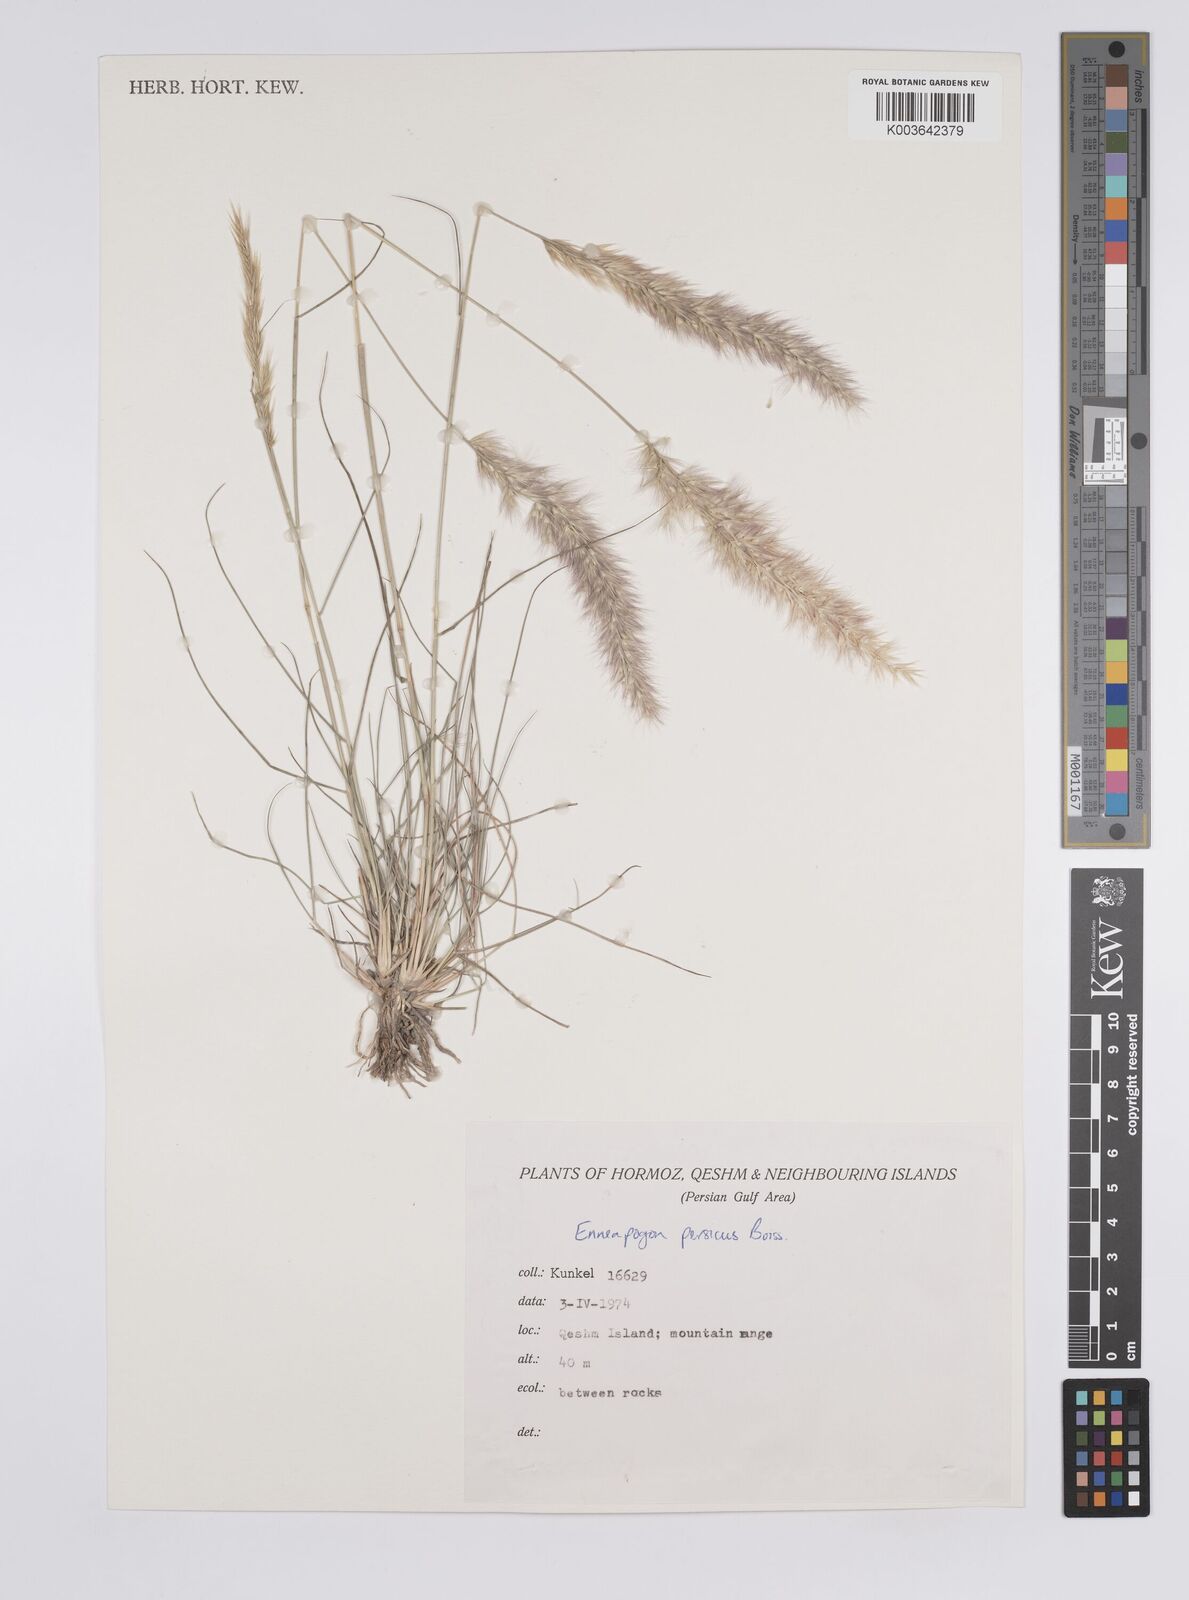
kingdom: Plantae
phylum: Tracheophyta
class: Liliopsida
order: Poales
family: Poaceae
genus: Enneapogon
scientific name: Enneapogon persicus
